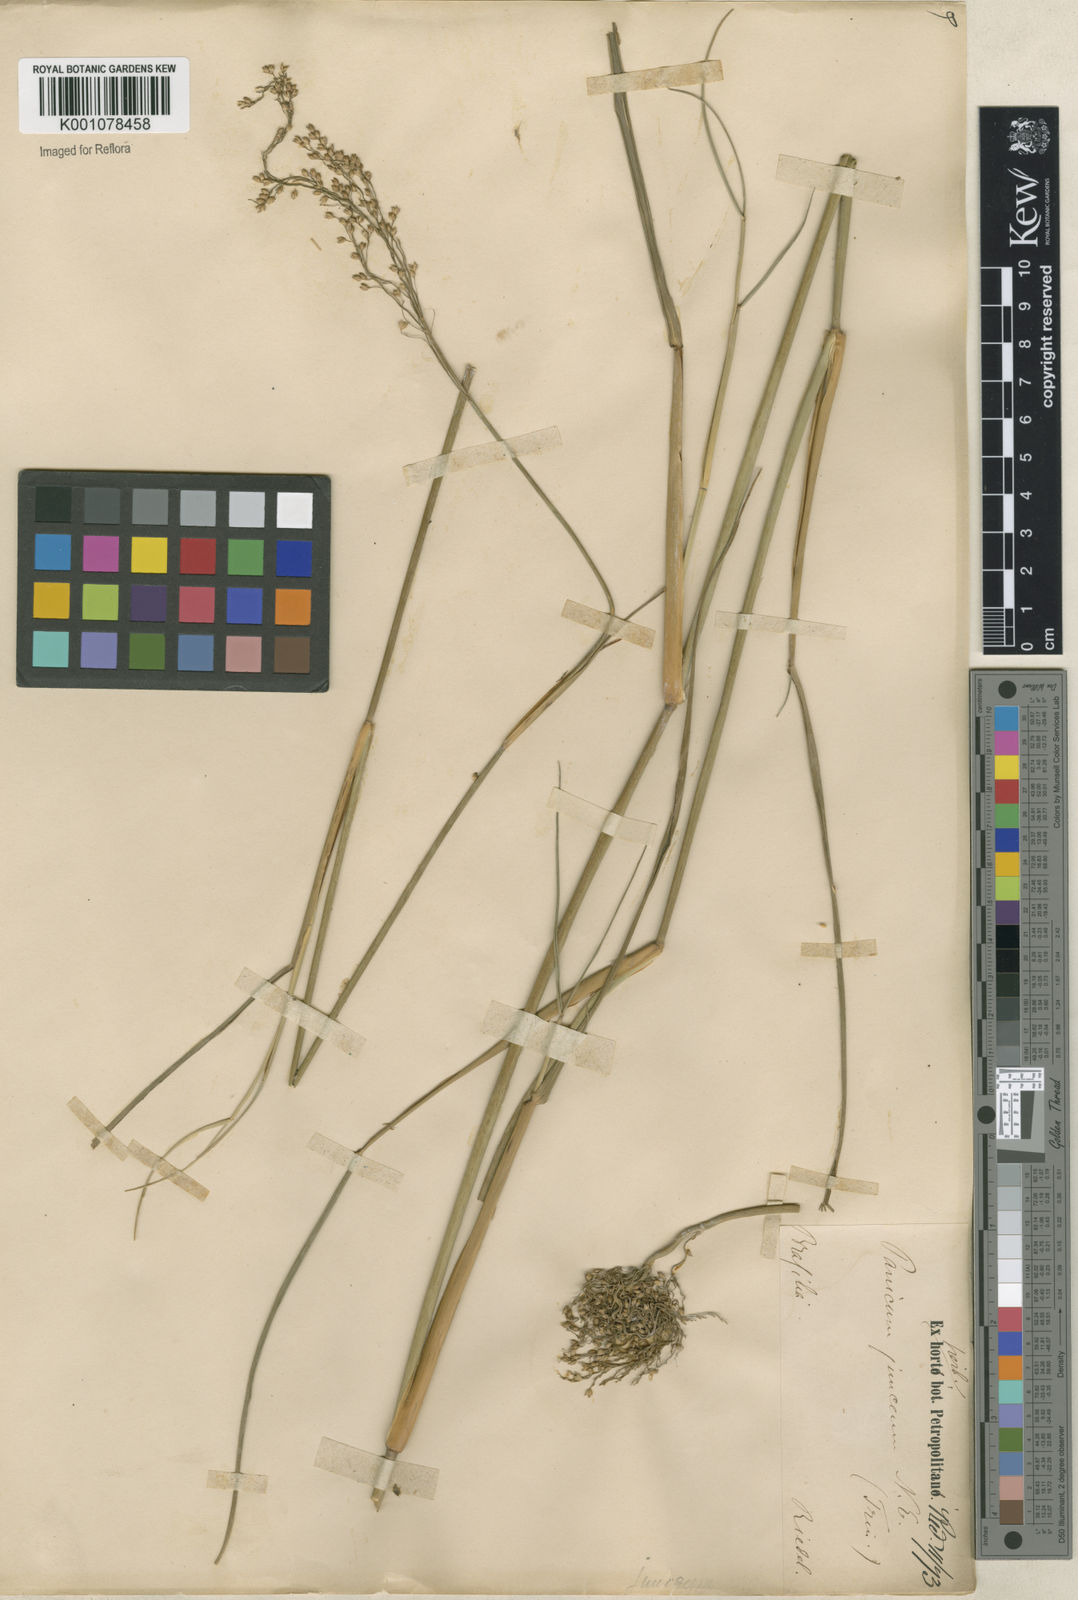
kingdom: Plantae
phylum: Tracheophyta
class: Liliopsida
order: Poales
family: Poaceae
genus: Panicum
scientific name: Panicum tricholaenoides
